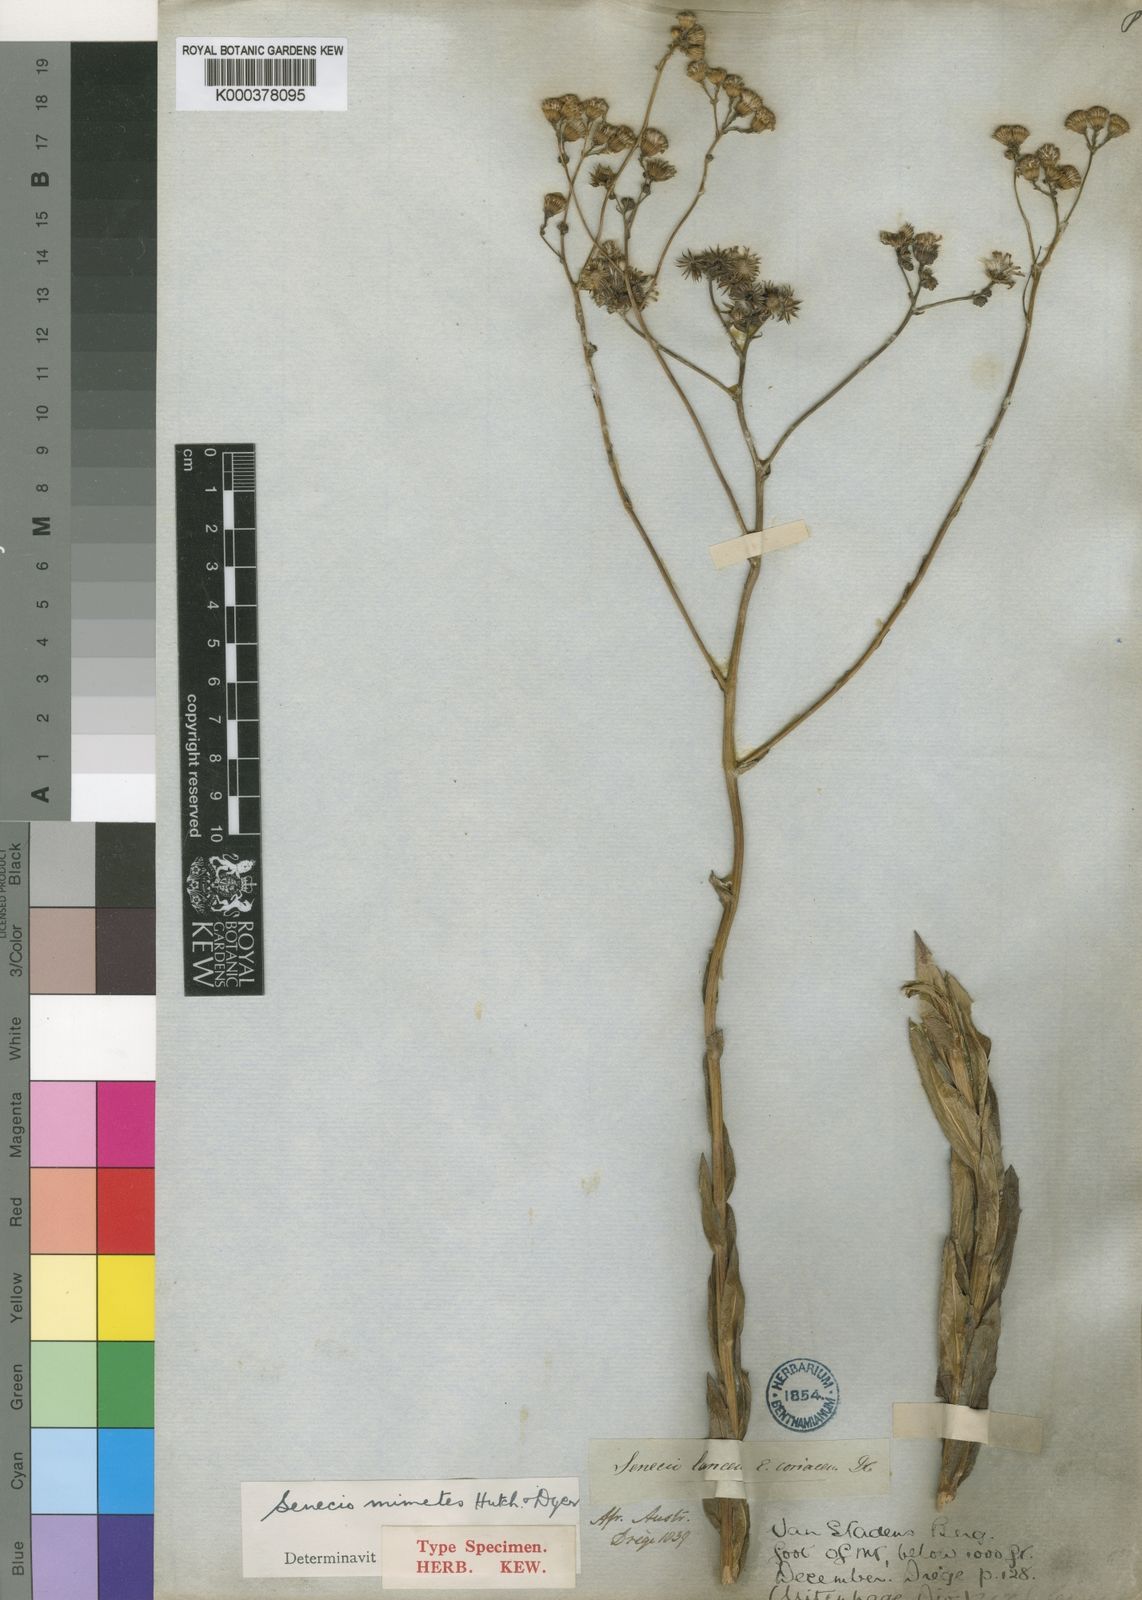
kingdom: Plantae
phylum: Tracheophyta
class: Magnoliopsida
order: Asterales
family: Asteraceae
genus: Senecio
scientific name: Senecio mimetes
